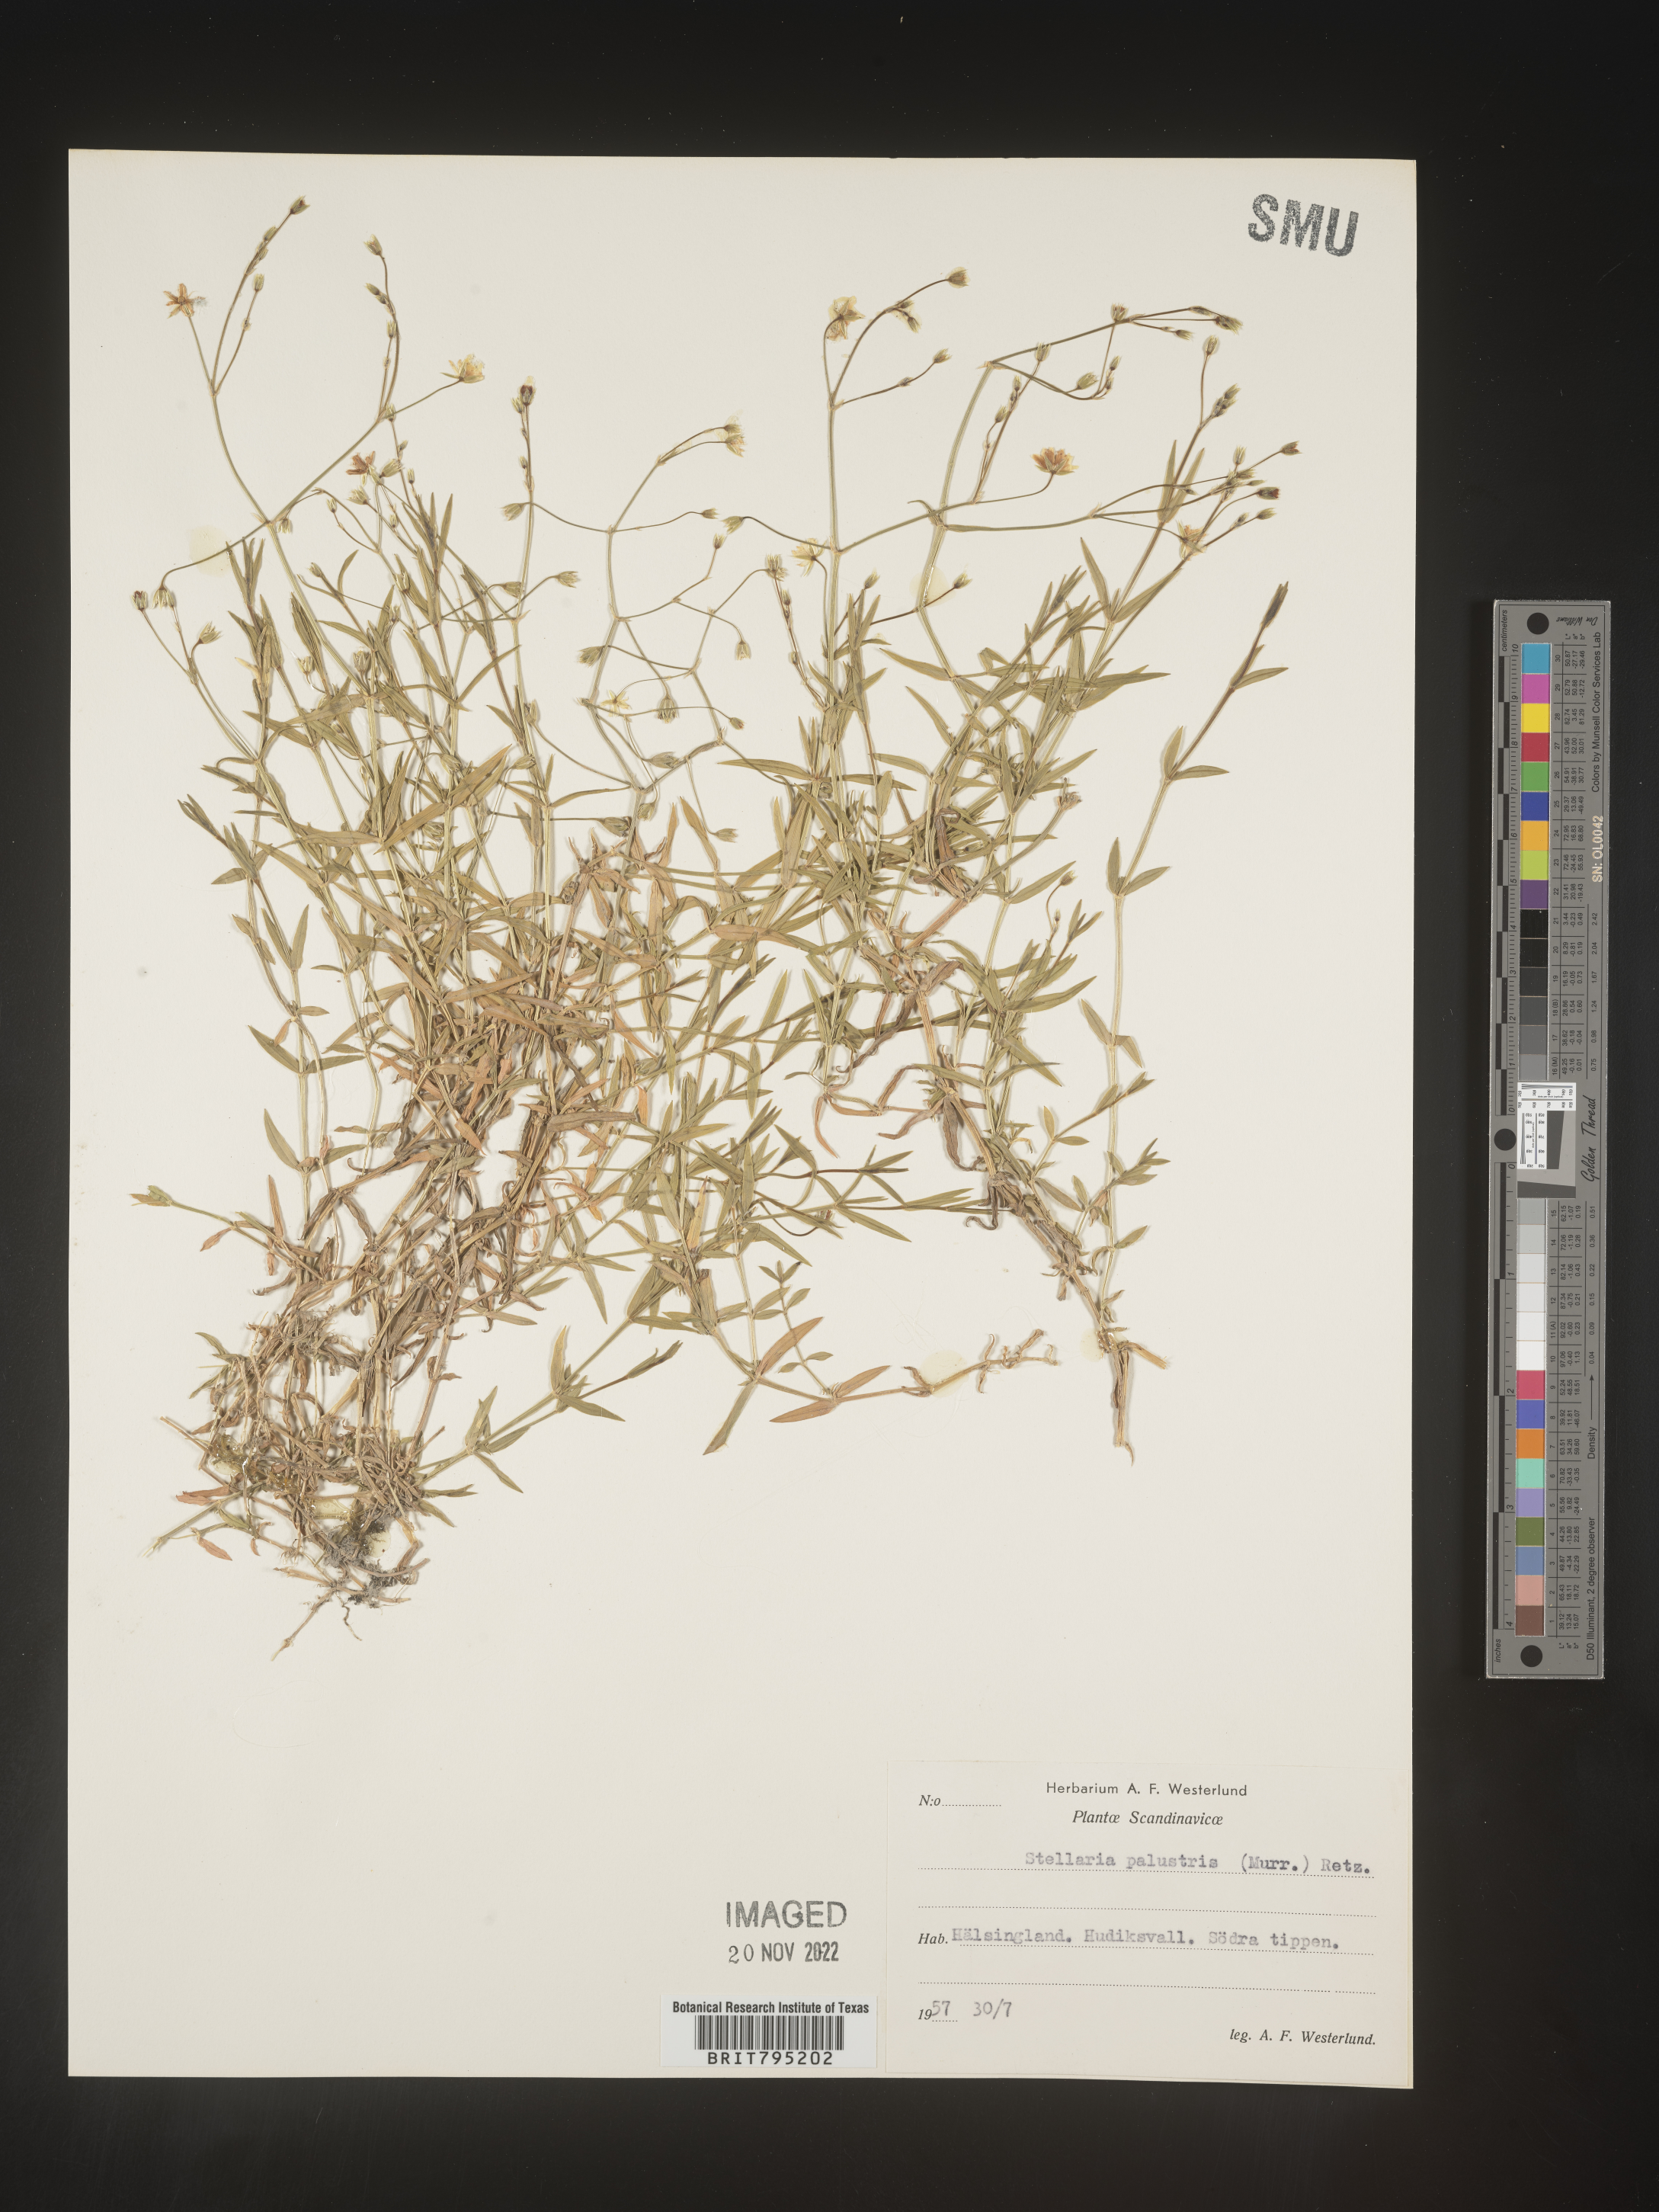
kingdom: Plantae
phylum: Tracheophyta
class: Magnoliopsida
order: Caryophyllales
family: Caryophyllaceae
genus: Stellaria
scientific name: Stellaria
